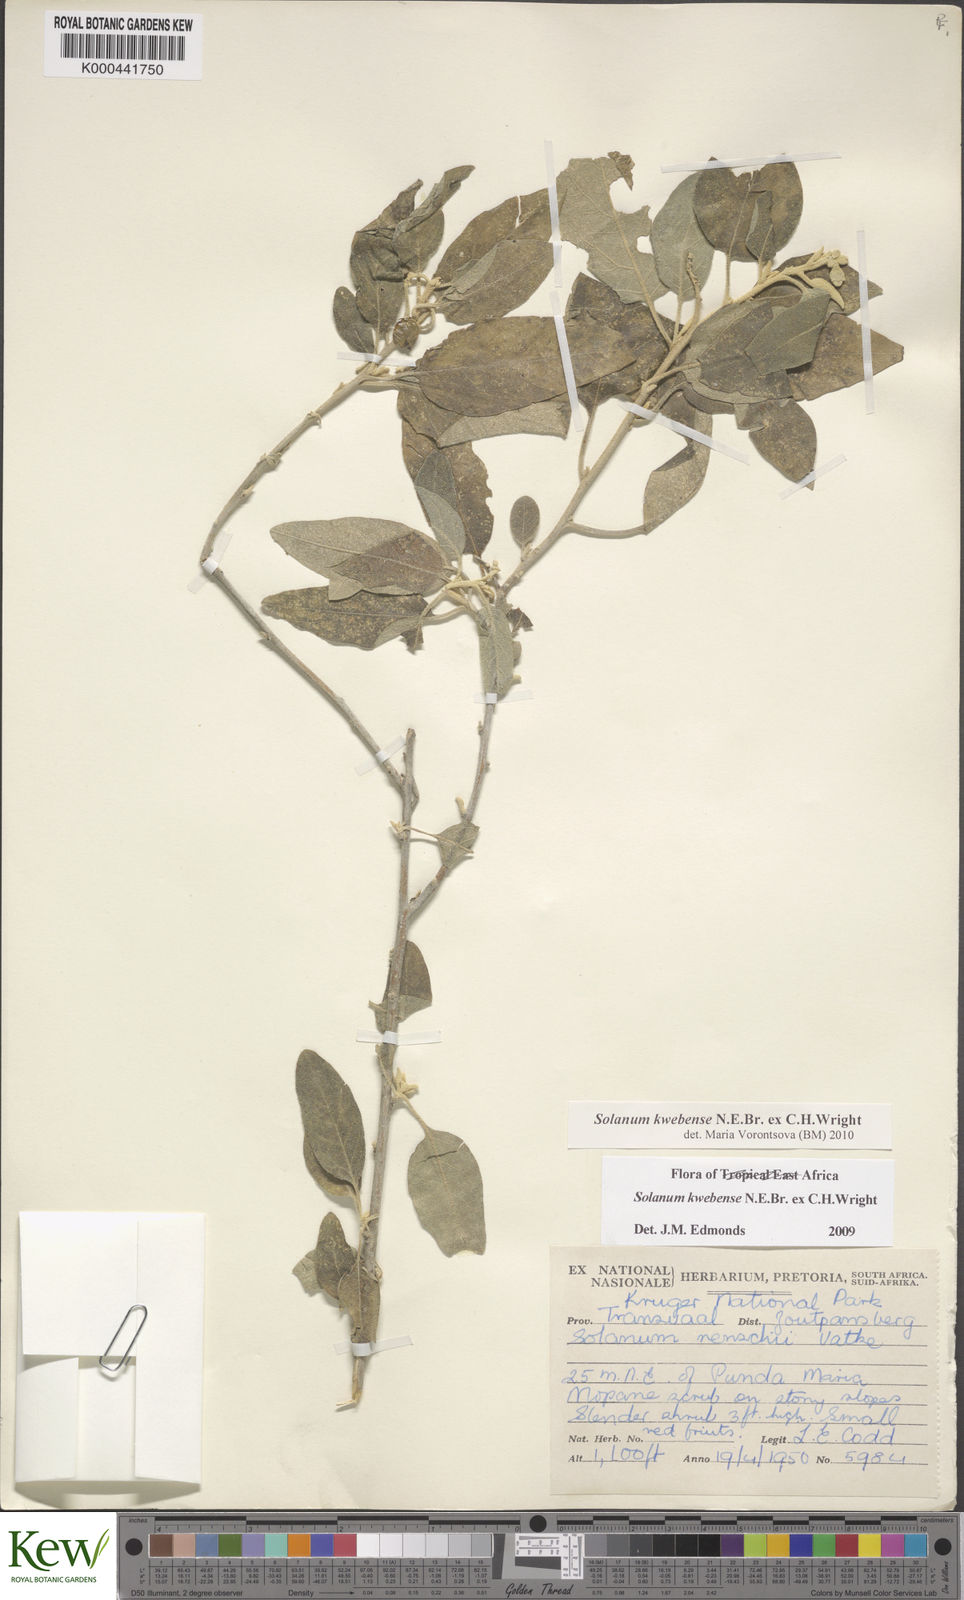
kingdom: Plantae
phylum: Tracheophyta
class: Magnoliopsida
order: Solanales
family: Solanaceae
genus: Solanum
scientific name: Solanum tettense
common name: Mozambique bitter apple
